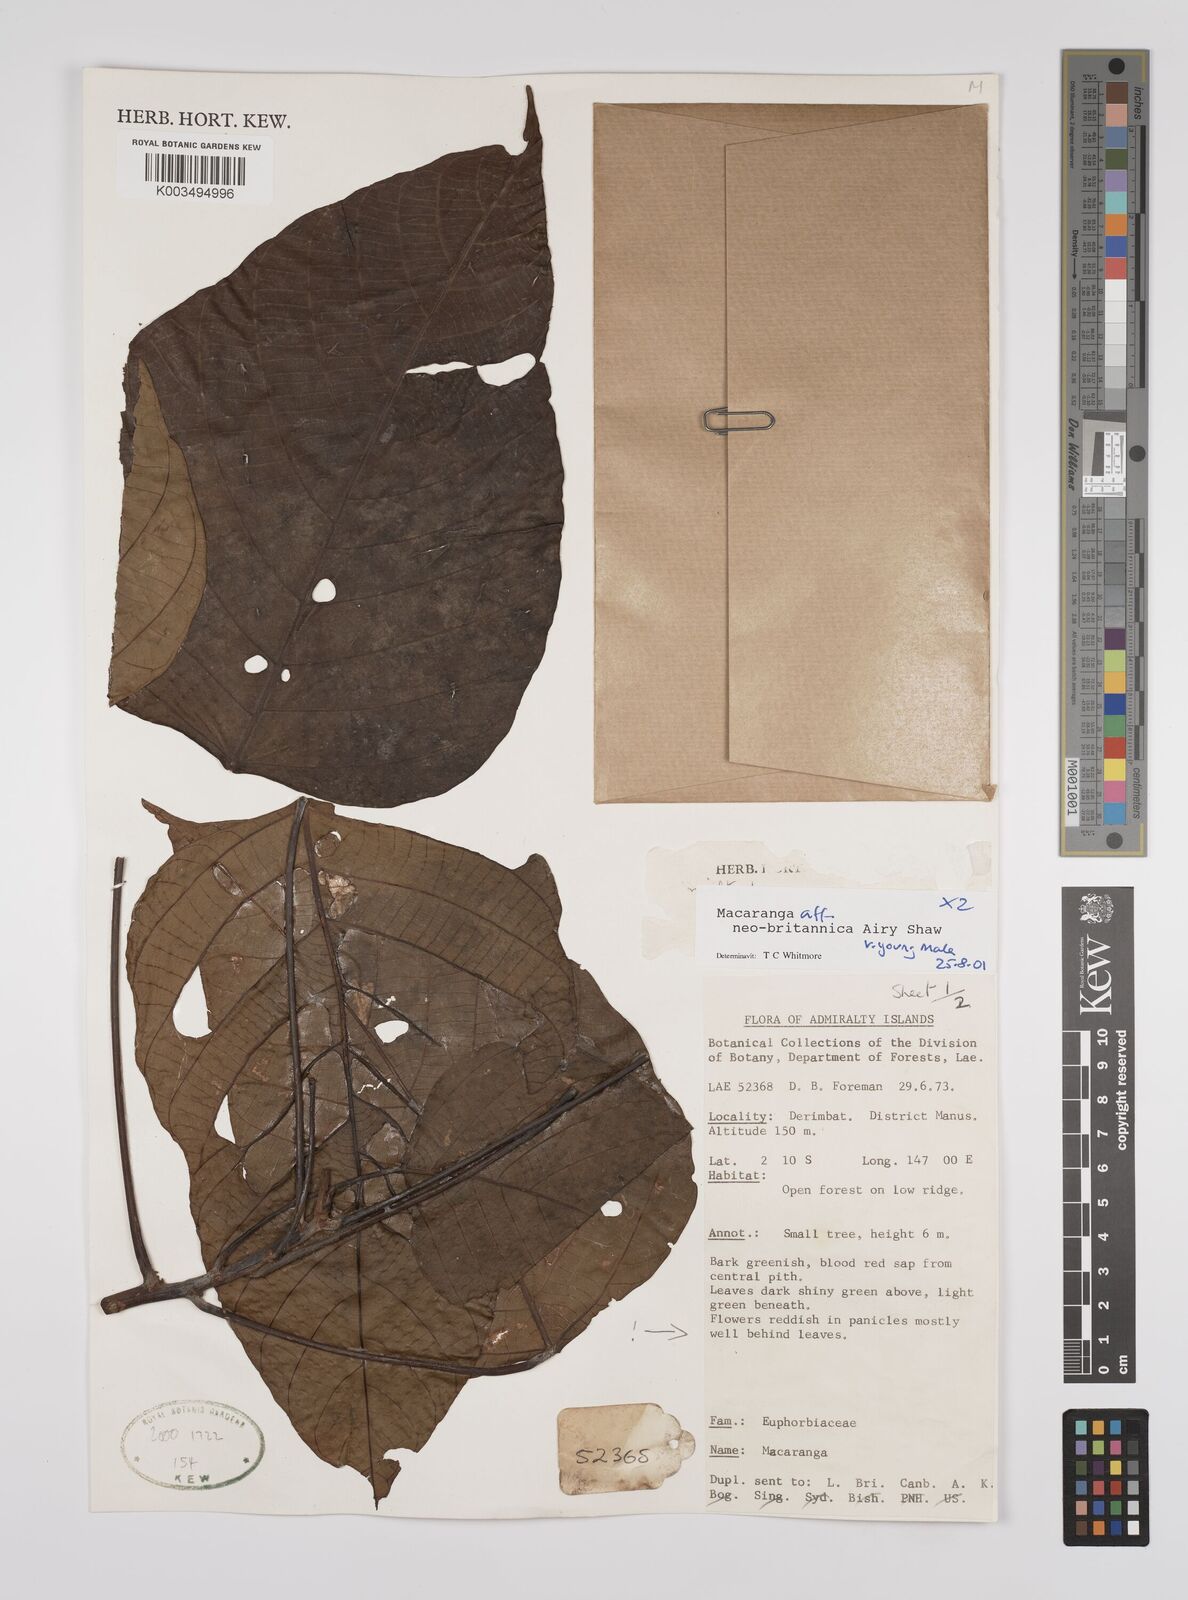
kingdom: Plantae
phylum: Tracheophyta
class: Magnoliopsida
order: Malpighiales
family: Euphorbiaceae
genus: Macaranga
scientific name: Macaranga neobritannica
